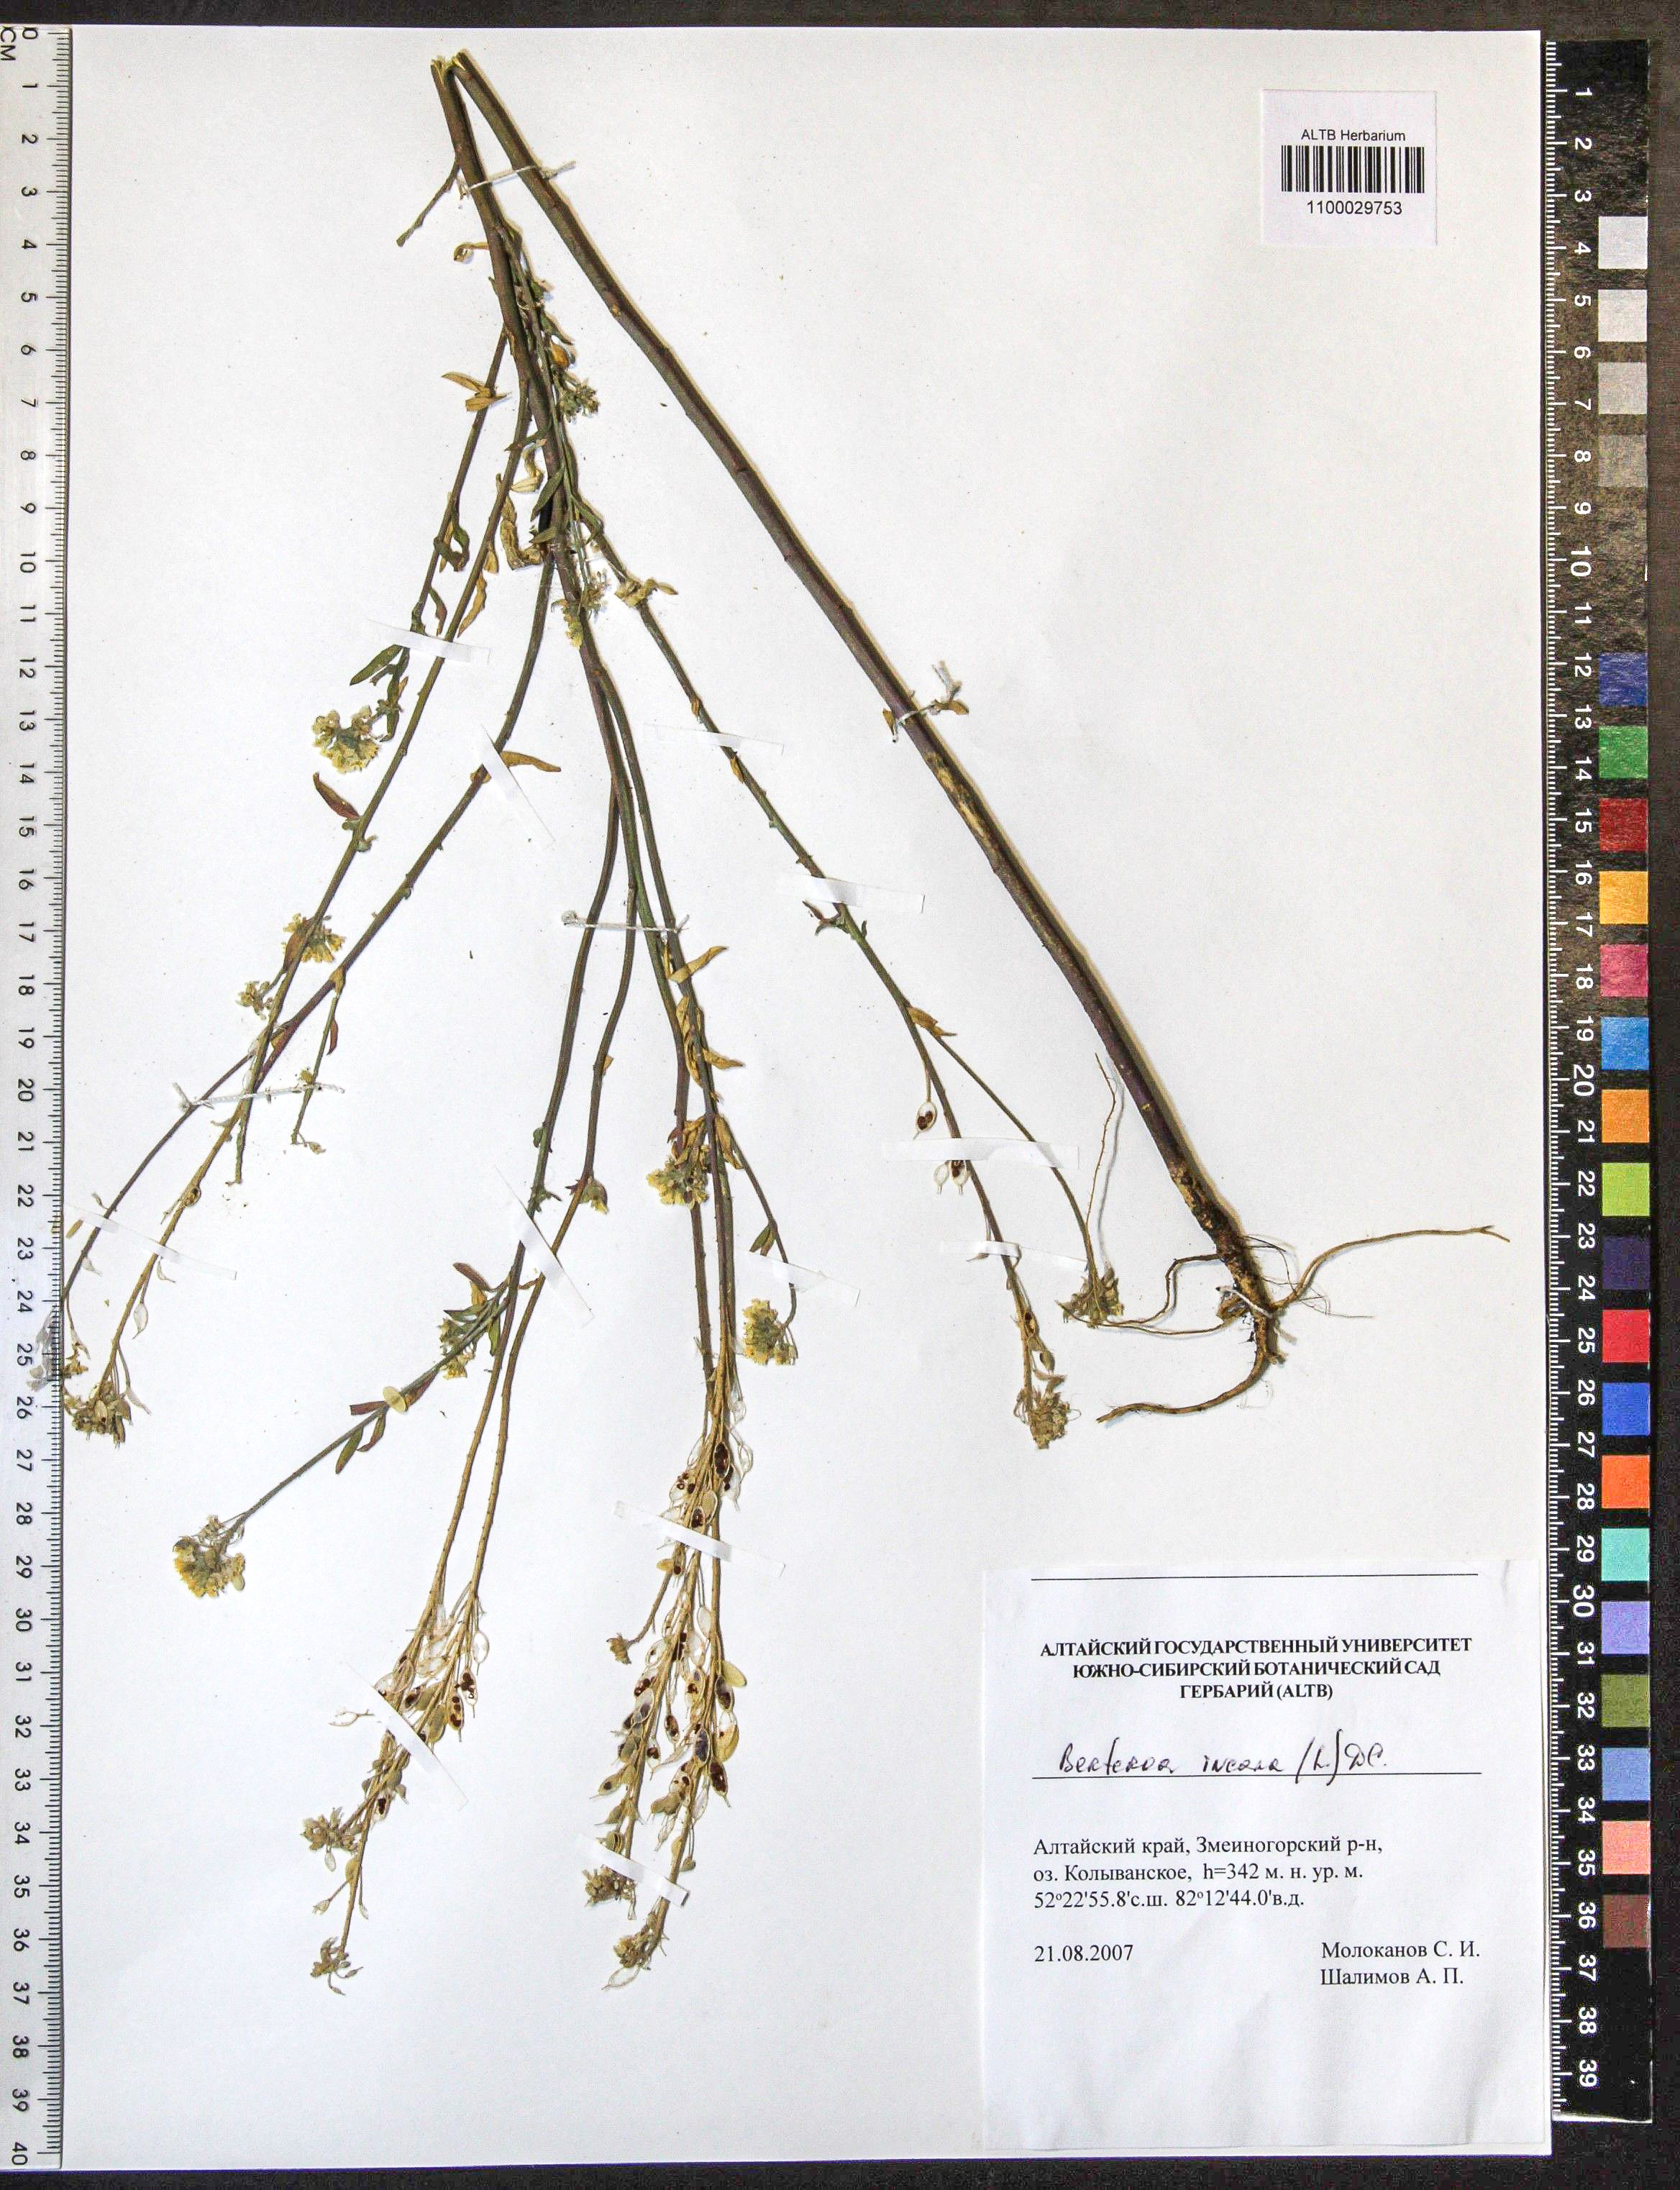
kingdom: Plantae
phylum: Tracheophyta
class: Magnoliopsida
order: Brassicales
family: Brassicaceae
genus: Berteroa
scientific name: Berteroa incana
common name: Hoary alison
